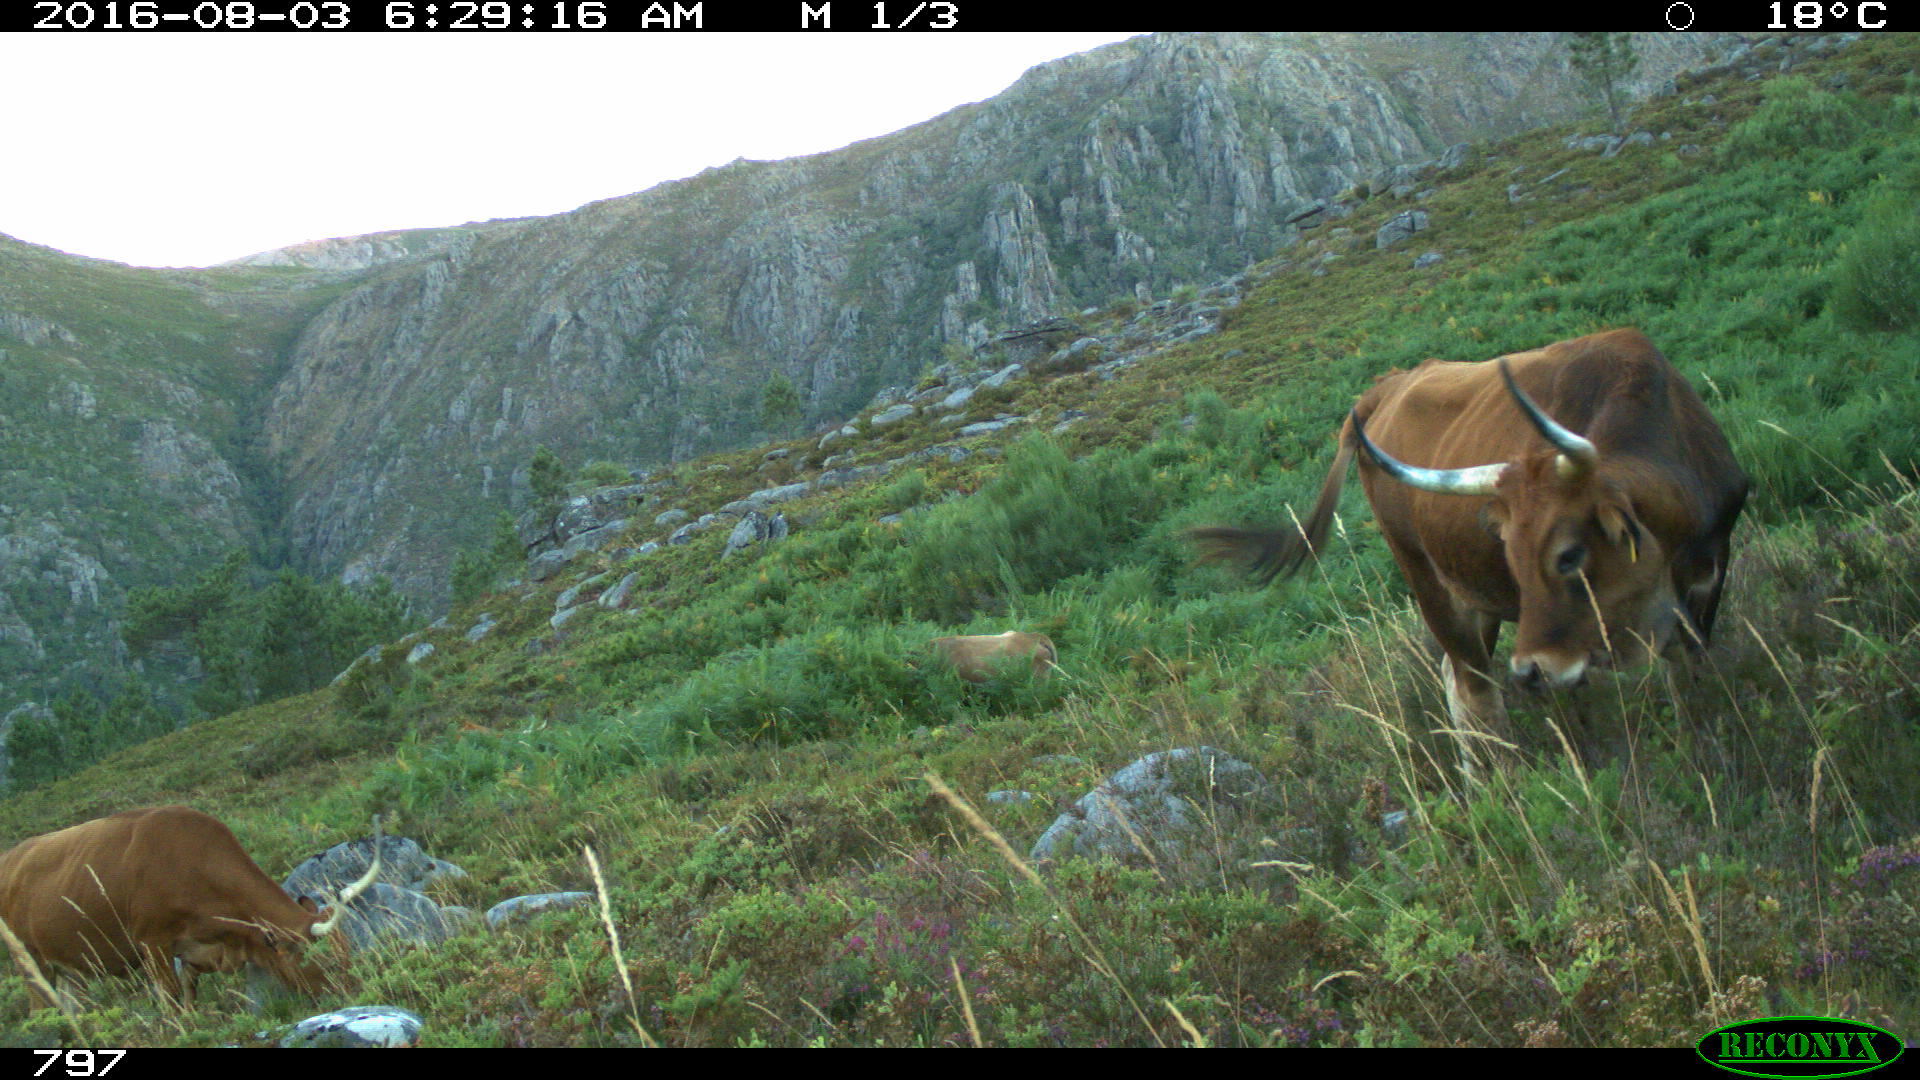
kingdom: Animalia
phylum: Chordata
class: Mammalia
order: Artiodactyla
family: Bovidae
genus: Bos
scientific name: Bos taurus
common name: Domesticated cattle
